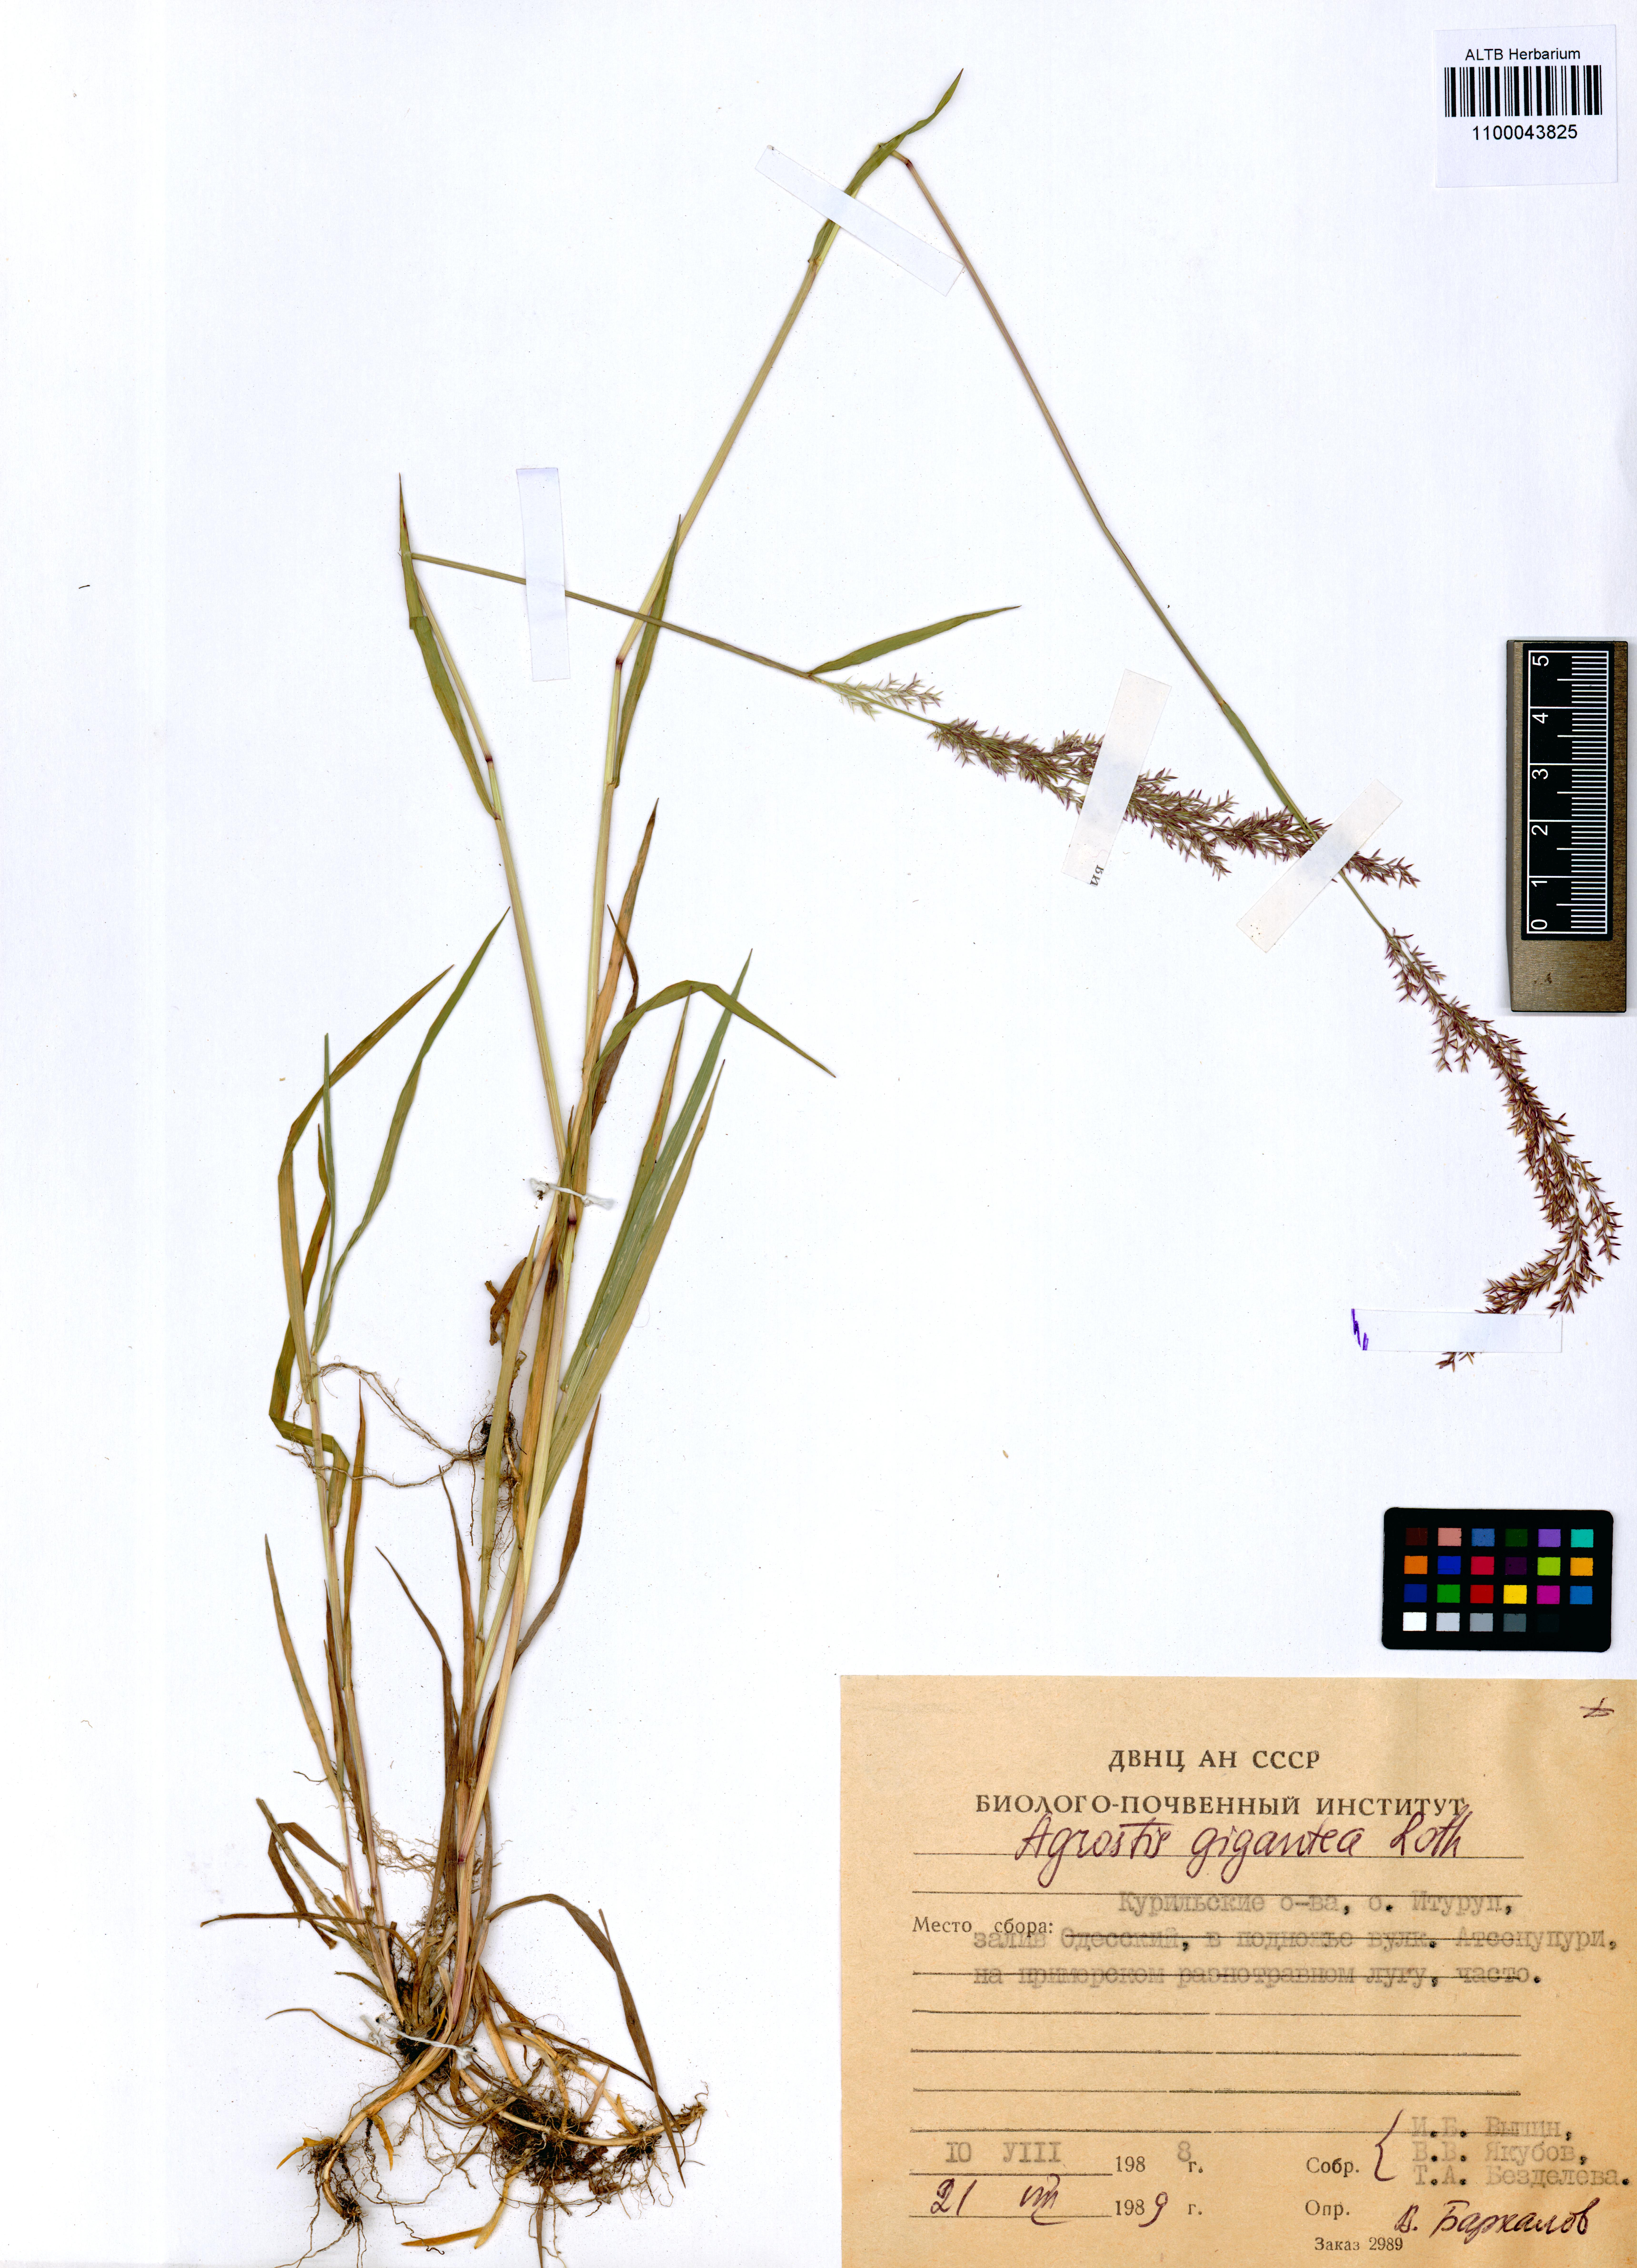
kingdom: Plantae
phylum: Tracheophyta
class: Liliopsida
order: Poales
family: Poaceae
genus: Agrostis
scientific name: Agrostis gigantea
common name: Black bent
